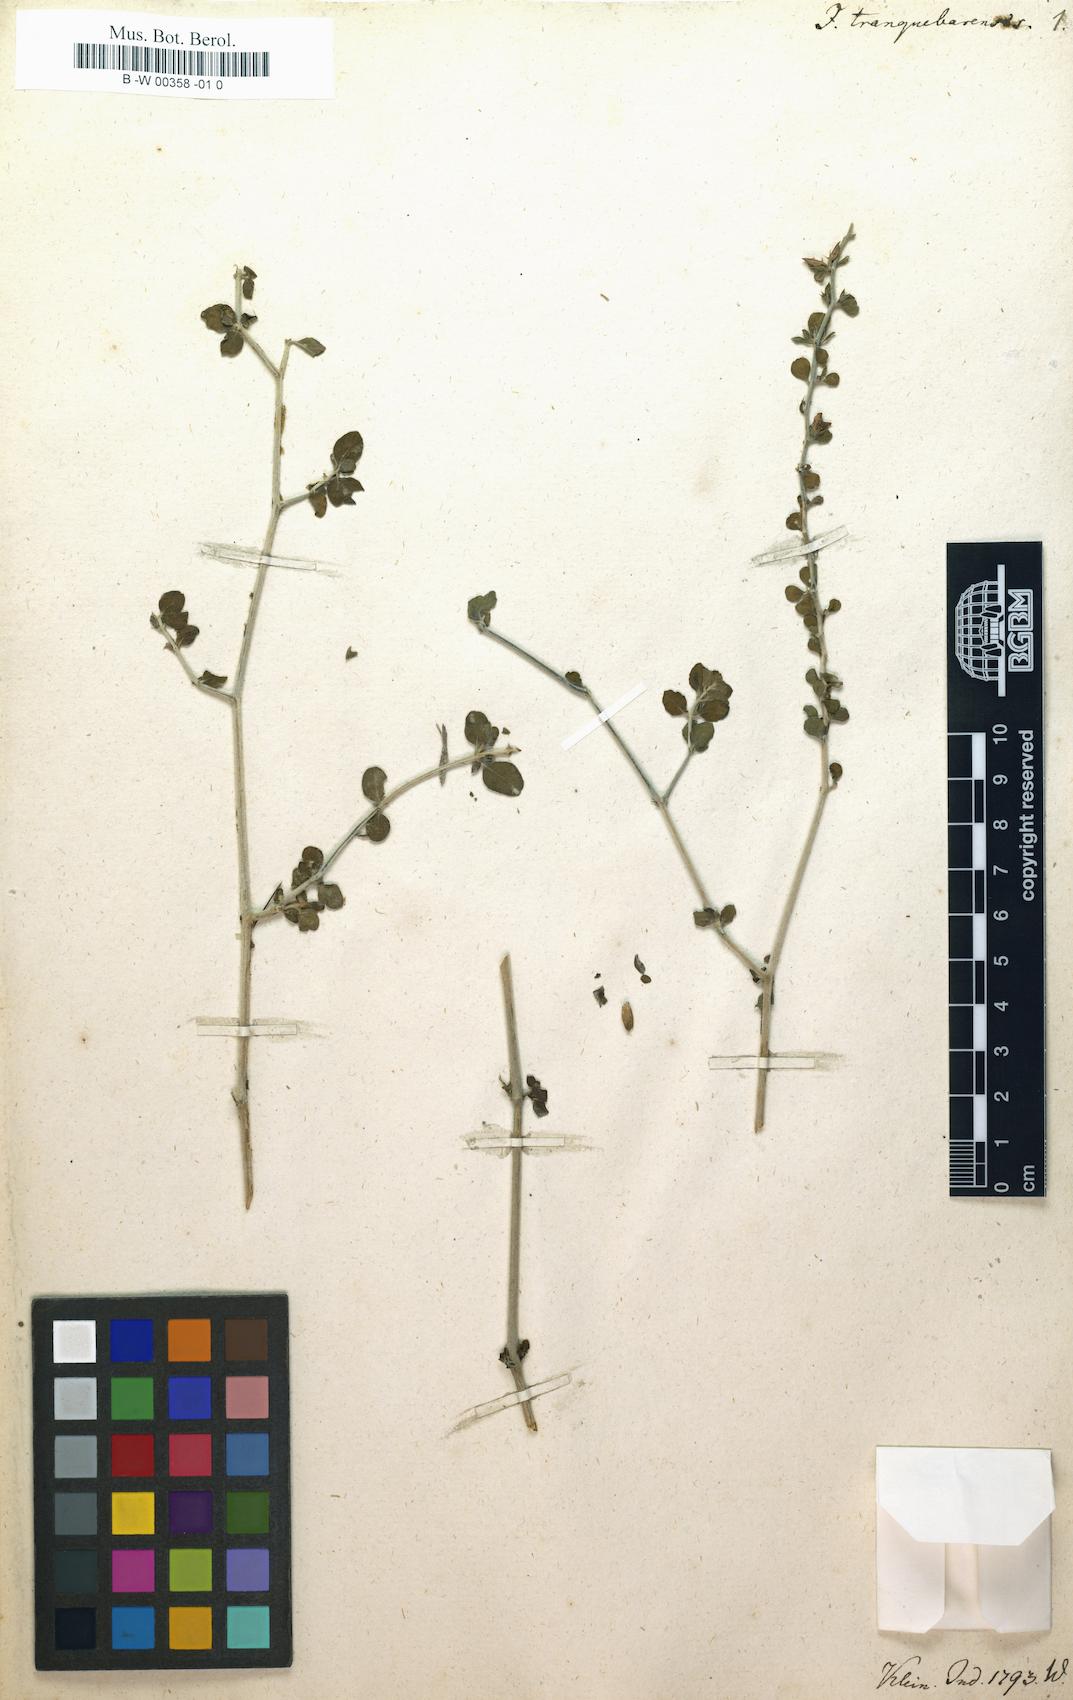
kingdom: Plantae
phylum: Tracheophyta
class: Magnoliopsida
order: Lamiales
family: Acanthaceae
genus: Justicia
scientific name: Justicia tranquebariensis
